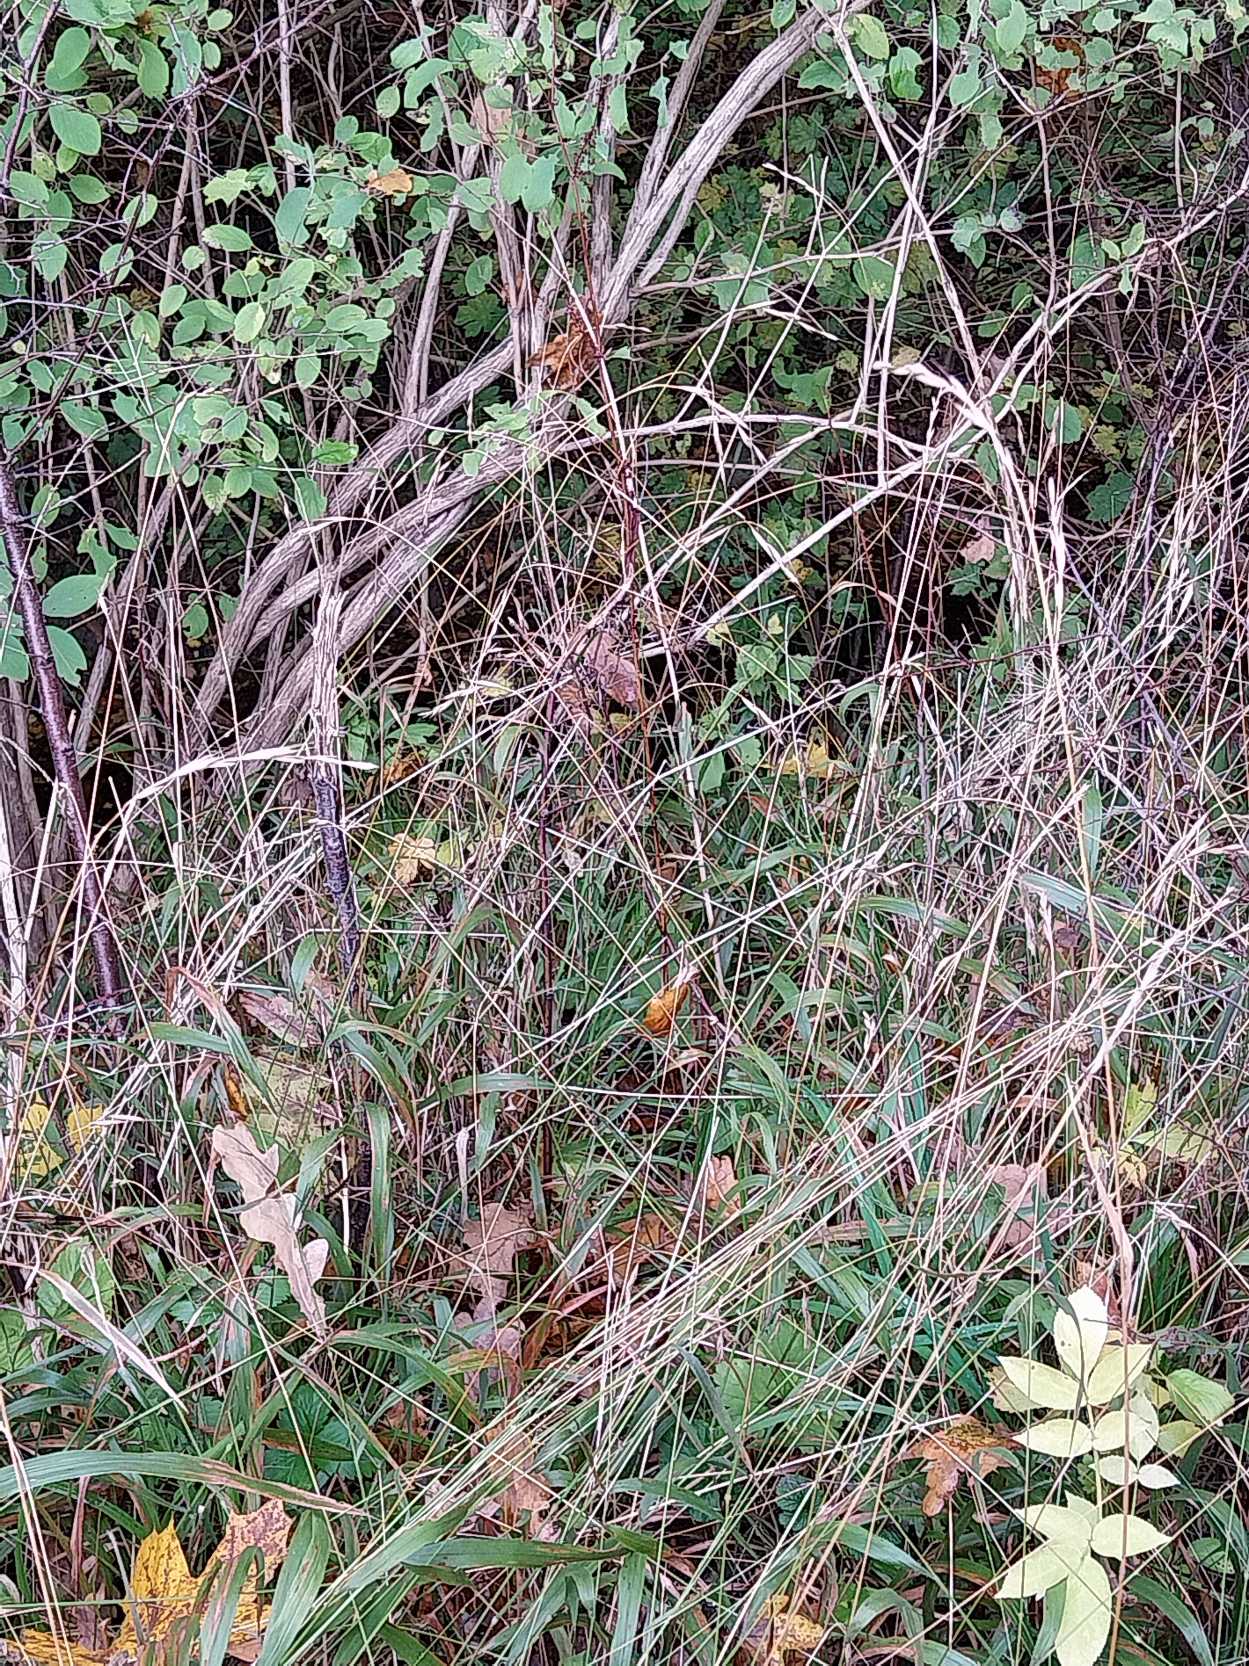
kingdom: Plantae
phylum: Tracheophyta
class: Liliopsida
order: Poales
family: Poaceae
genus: Brachypodium
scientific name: Brachypodium sylvaticum
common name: Skov-stilkaks
